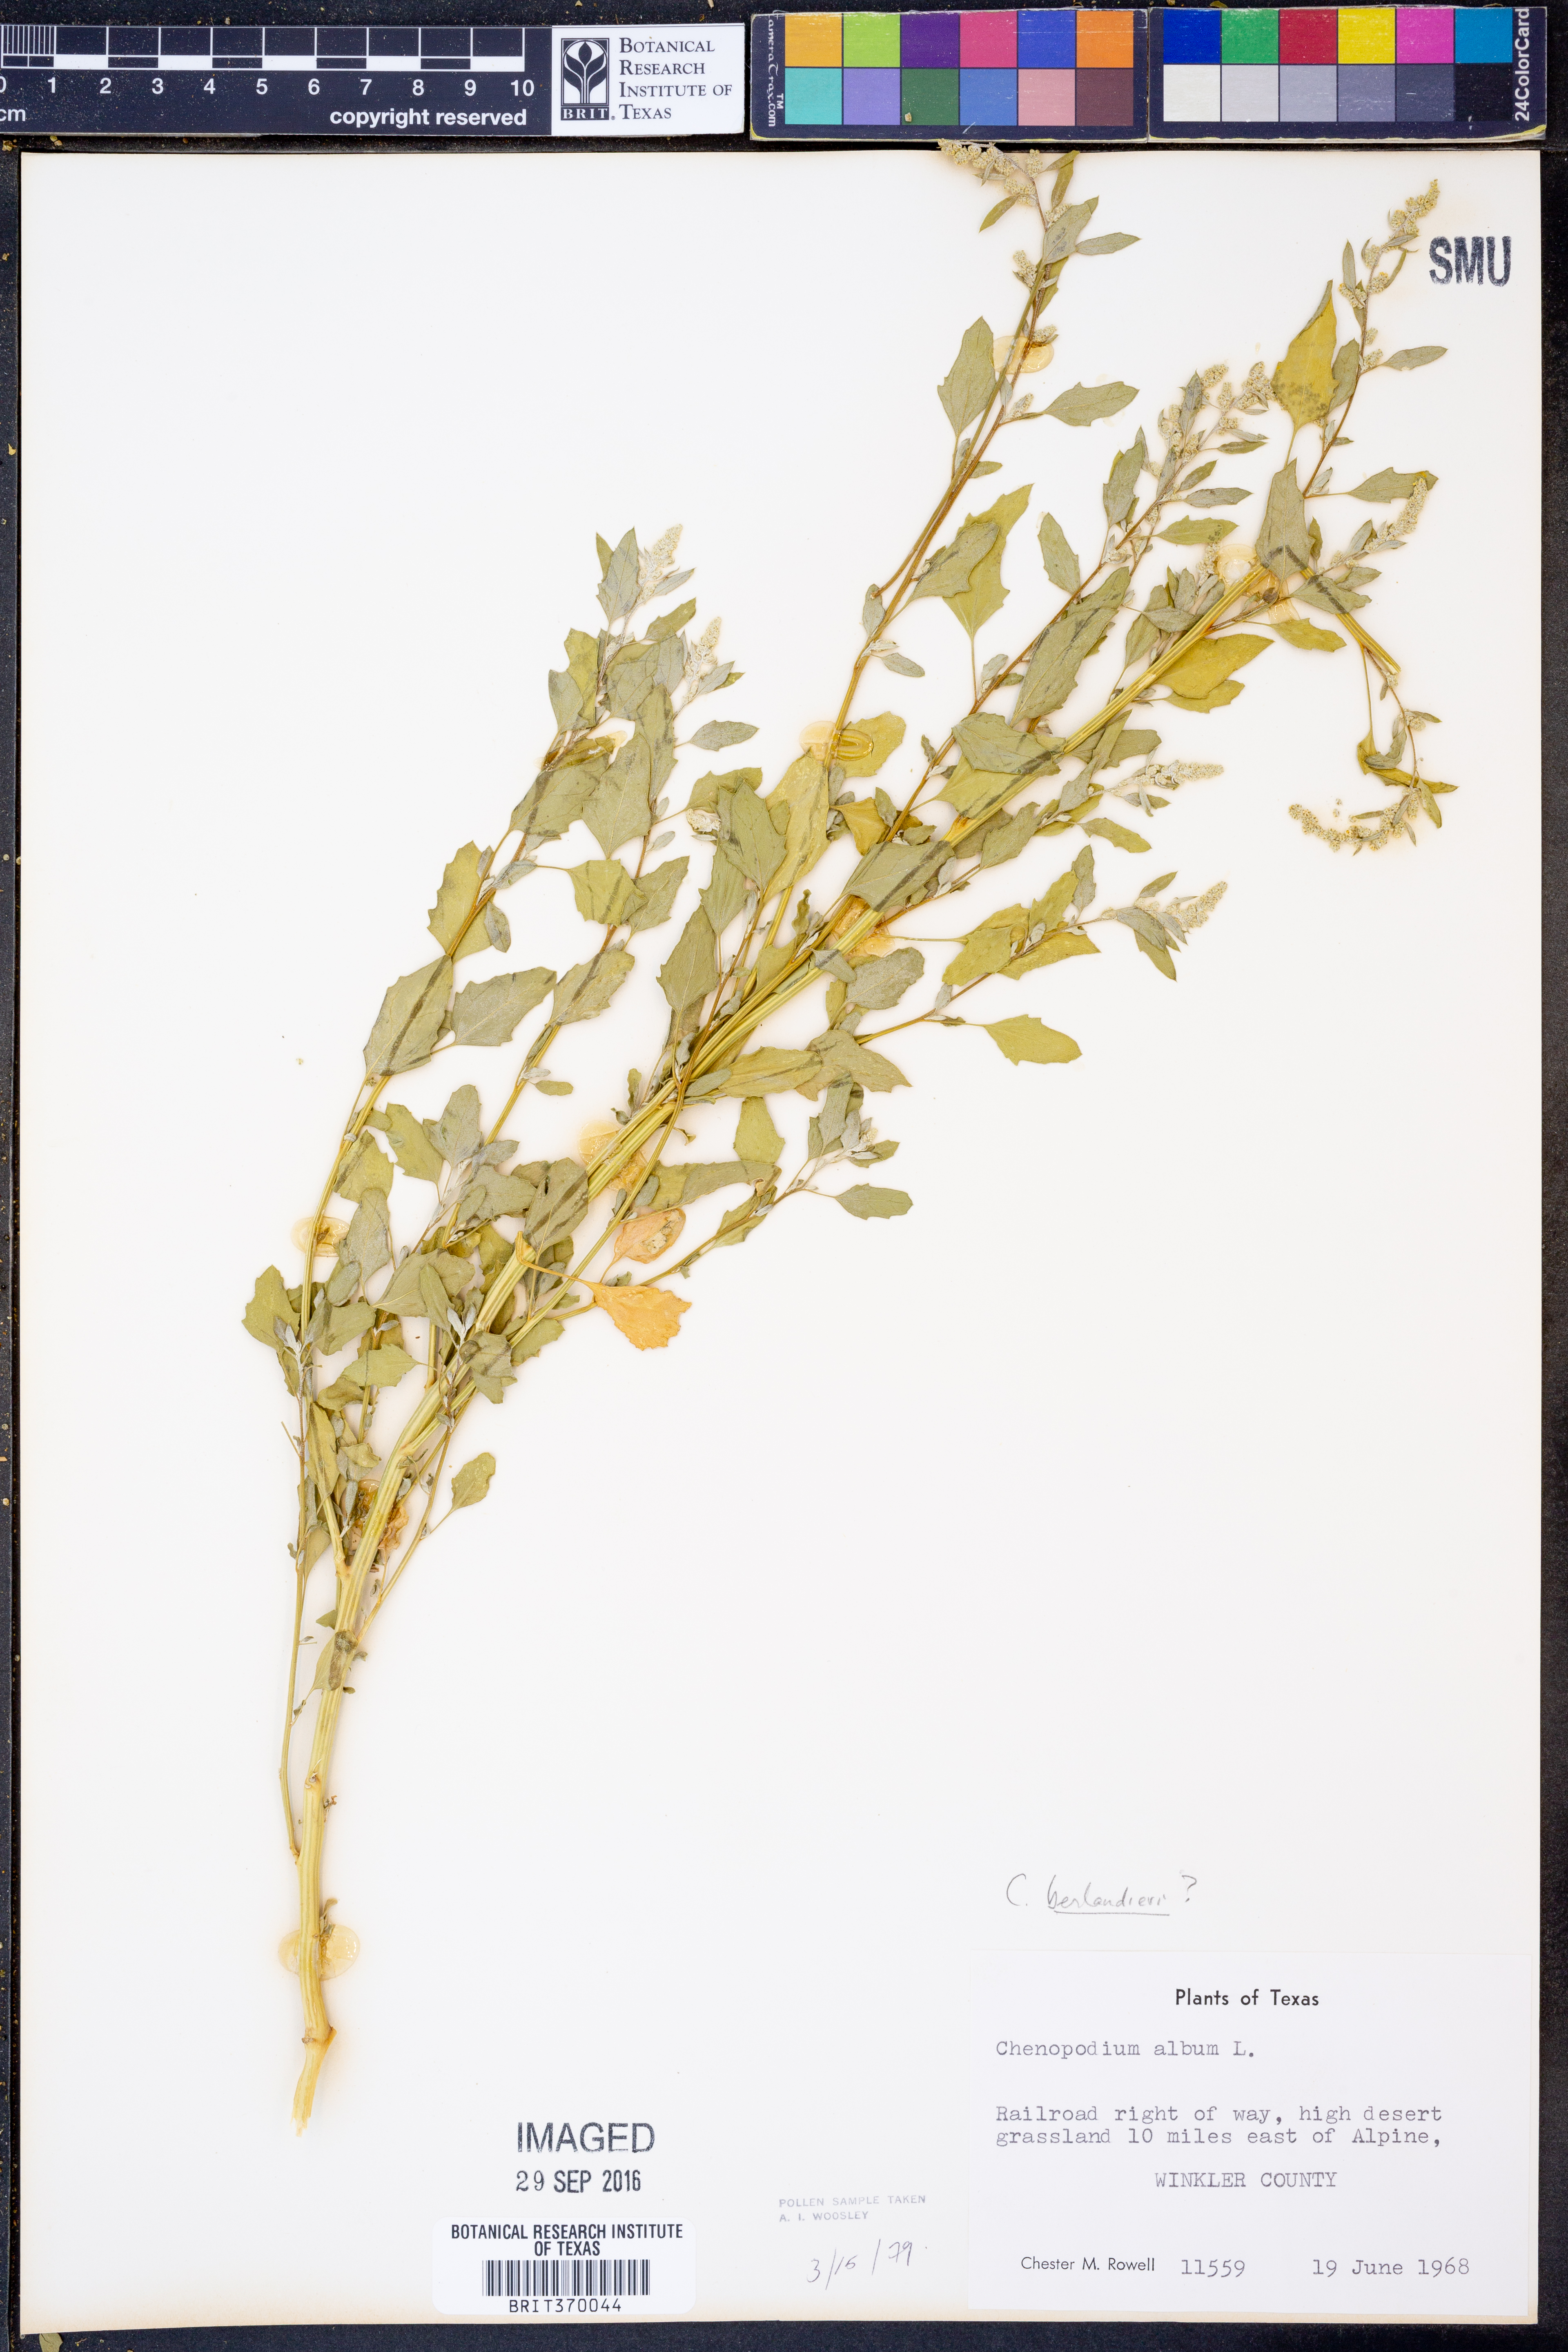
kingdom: Plantae
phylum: Tracheophyta
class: Magnoliopsida
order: Caryophyllales
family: Amaranthaceae
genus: Chenopodium
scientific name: Chenopodium berlandieri
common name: Pit-seed goosefoot
